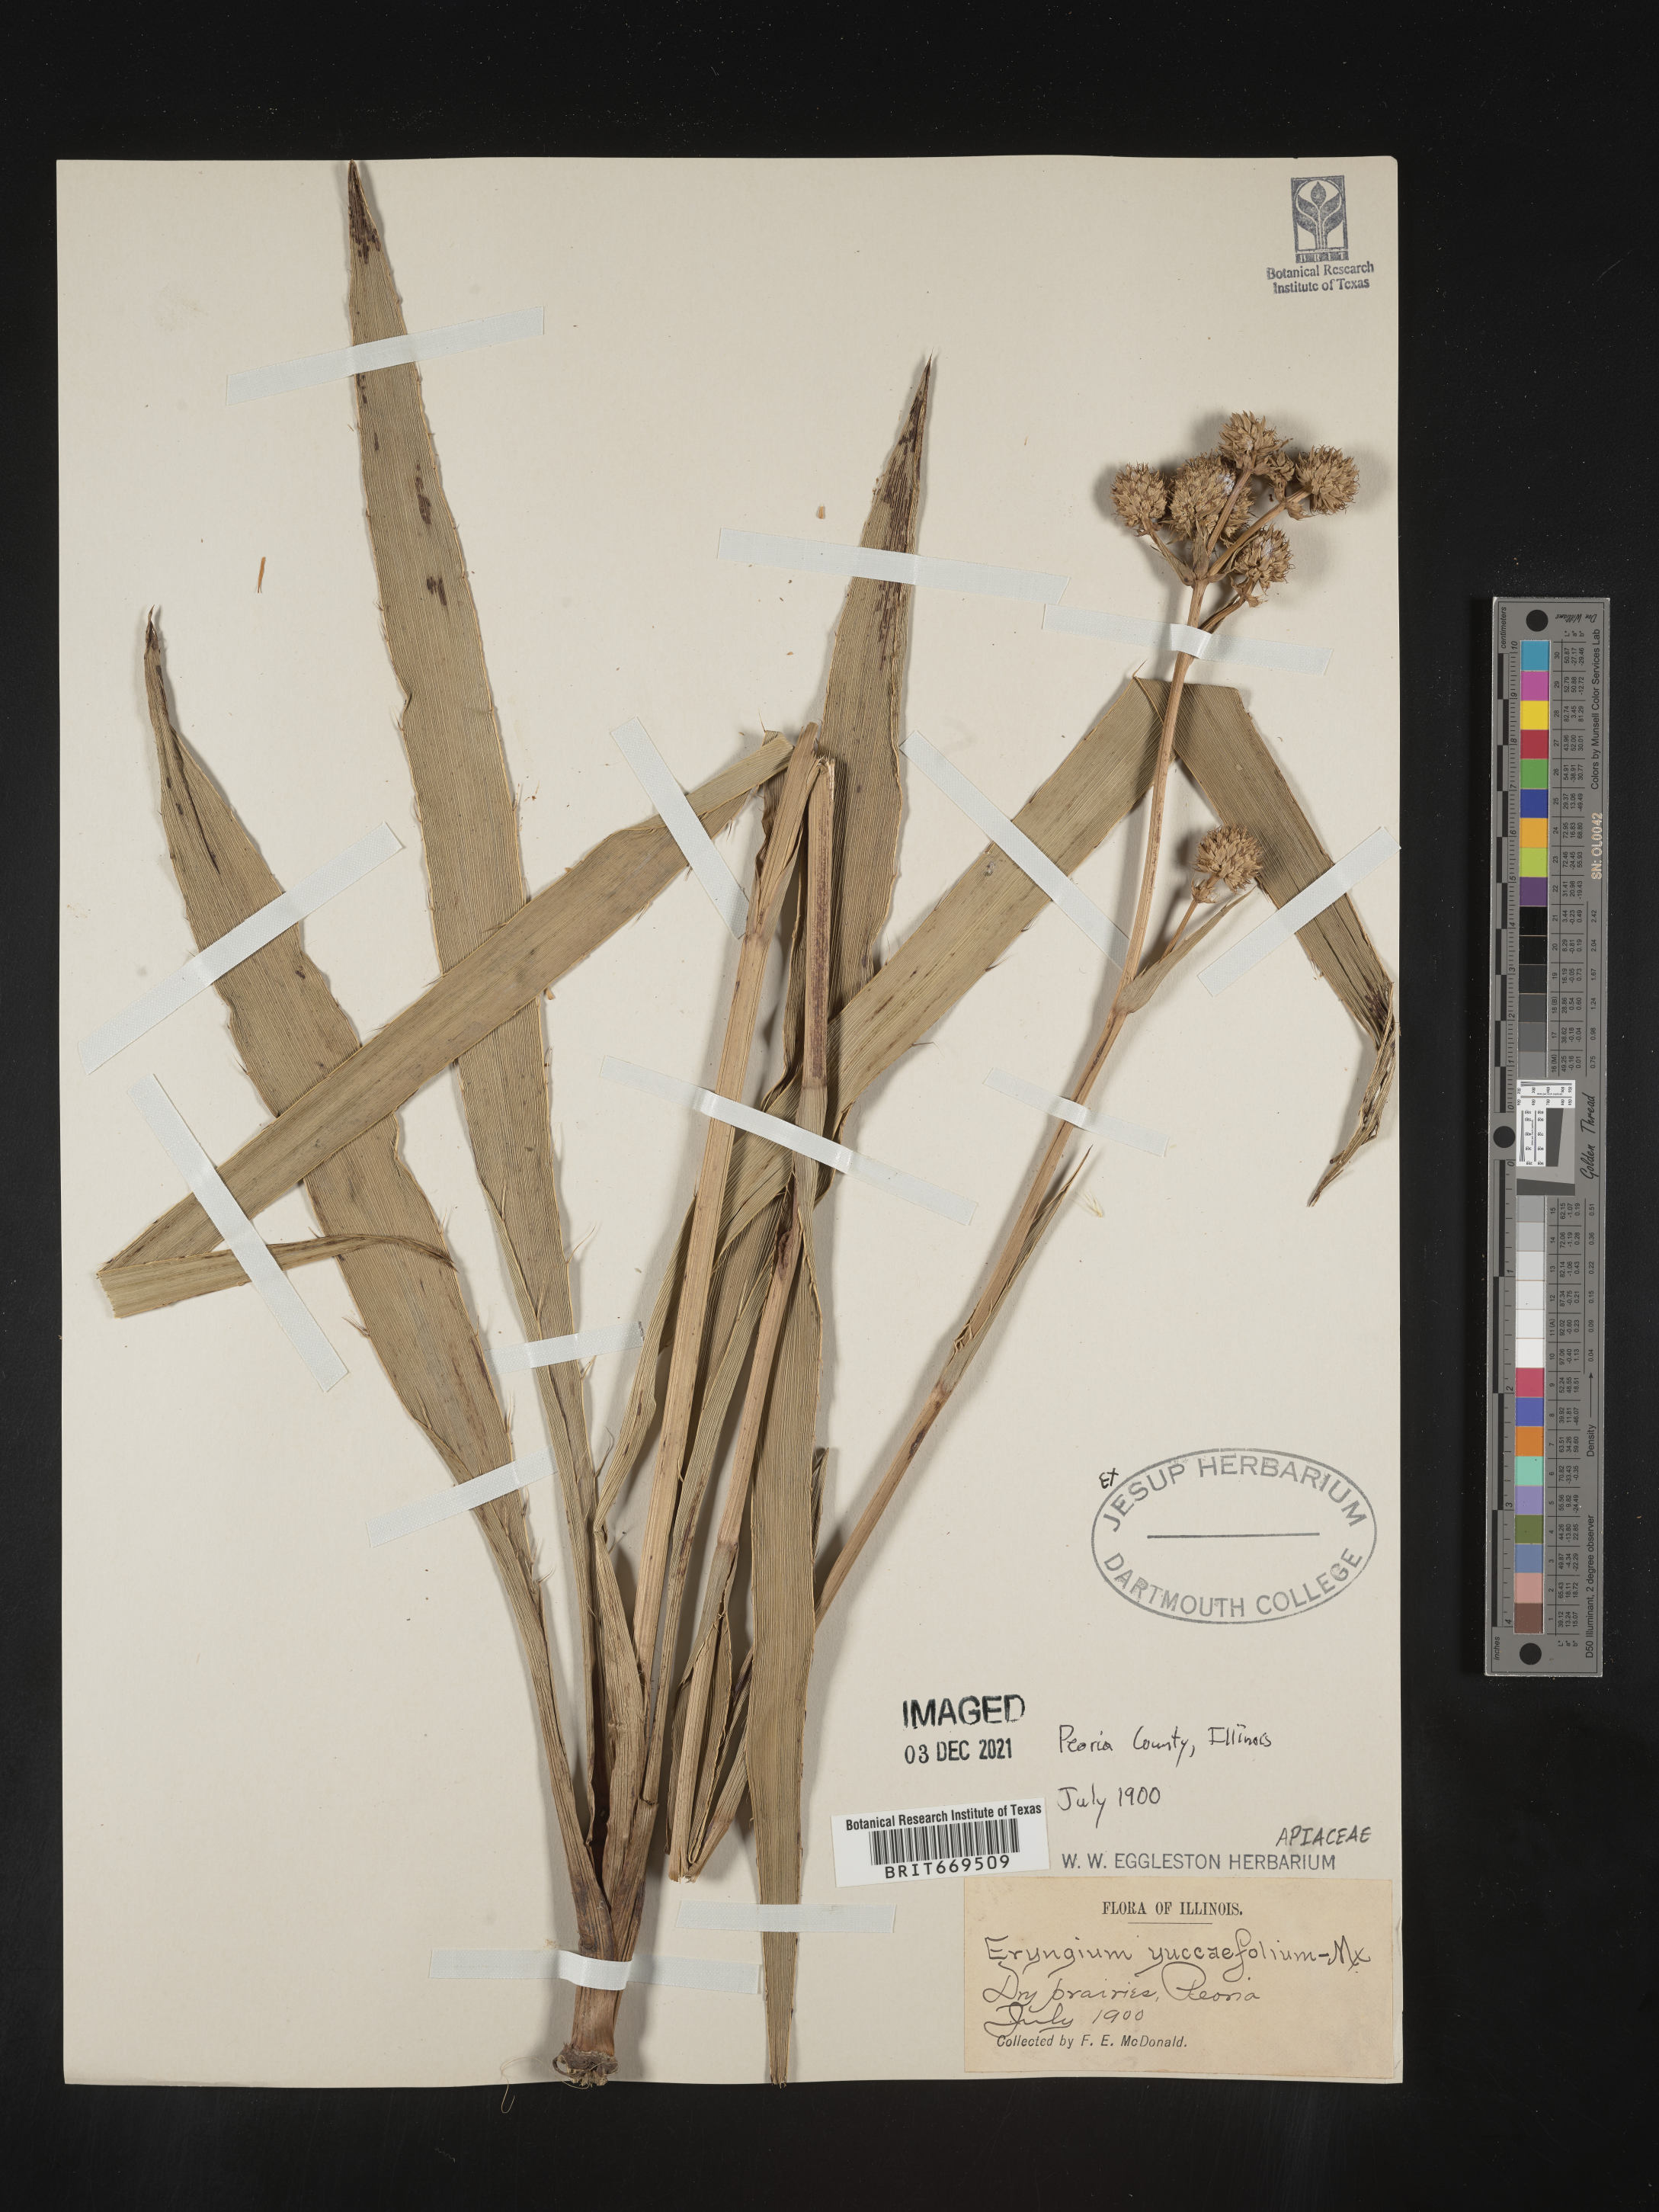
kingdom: Plantae
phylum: Tracheophyta
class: Magnoliopsida
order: Apiales
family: Apiaceae
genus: Eryngium
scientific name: Eryngium yuccifolium
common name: Button eryngo
